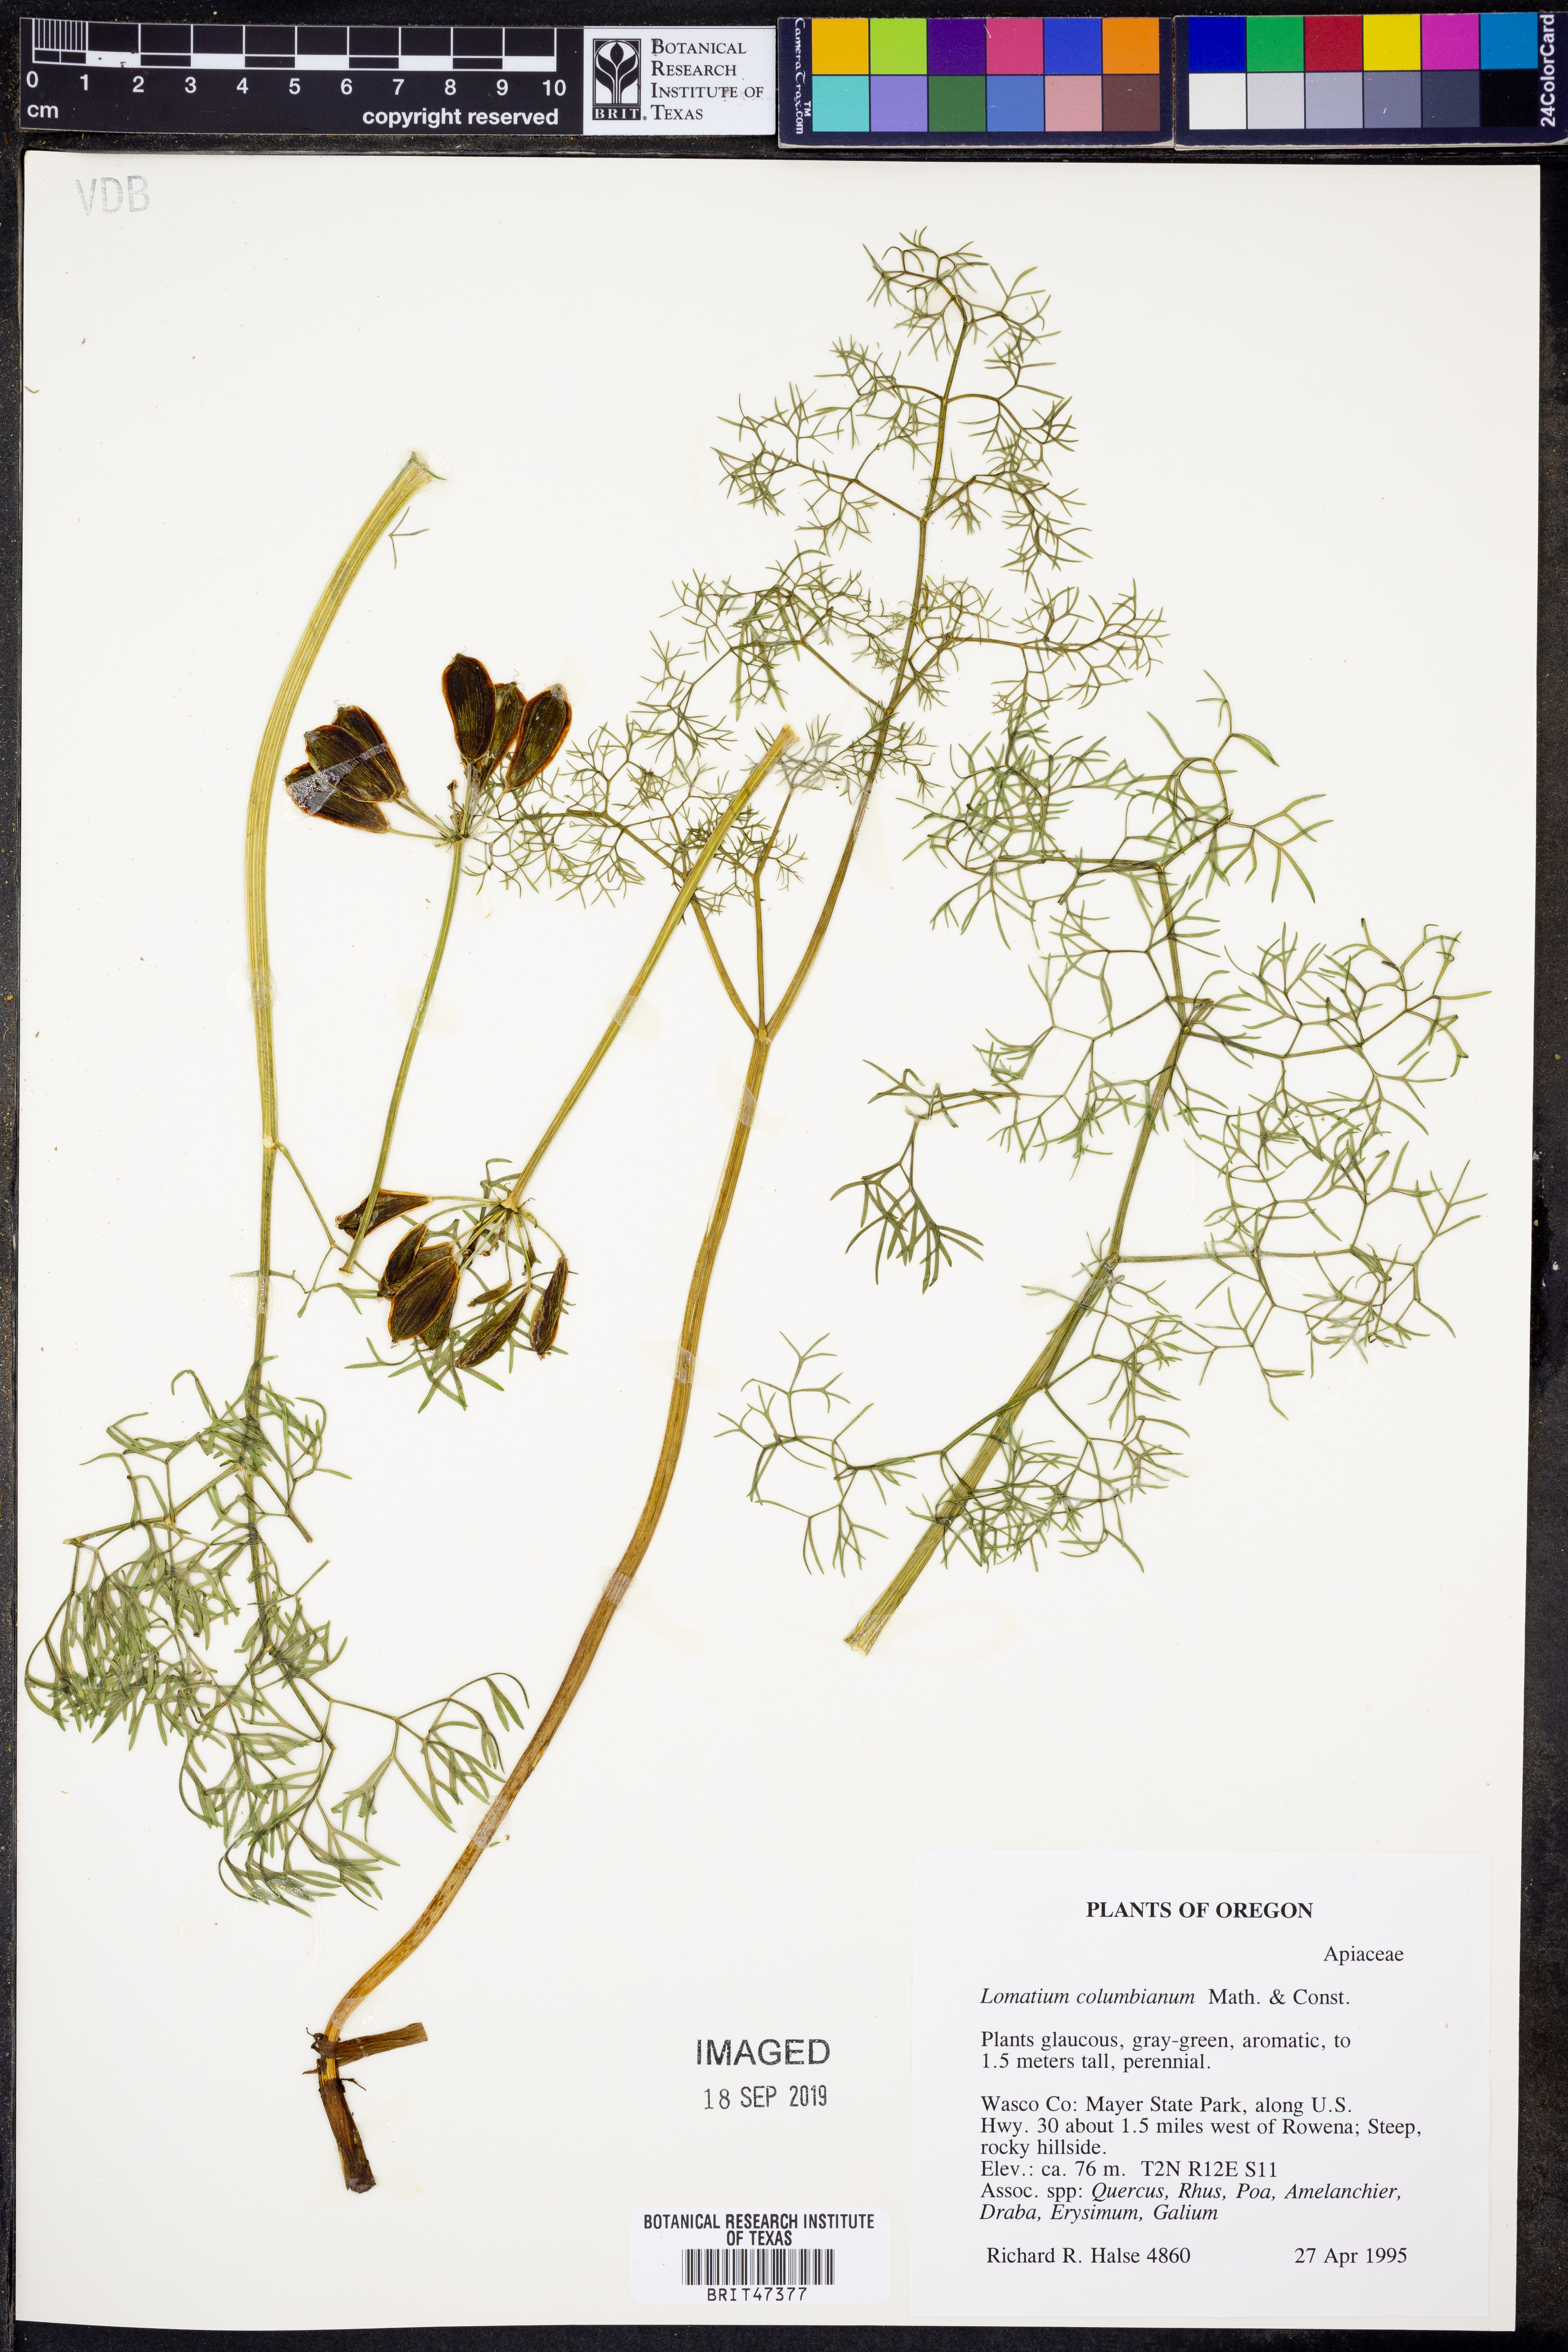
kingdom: Plantae
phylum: Tracheophyta
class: Magnoliopsida
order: Apiales
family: Apiaceae
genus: Lomatium
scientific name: Lomatium columbianum
